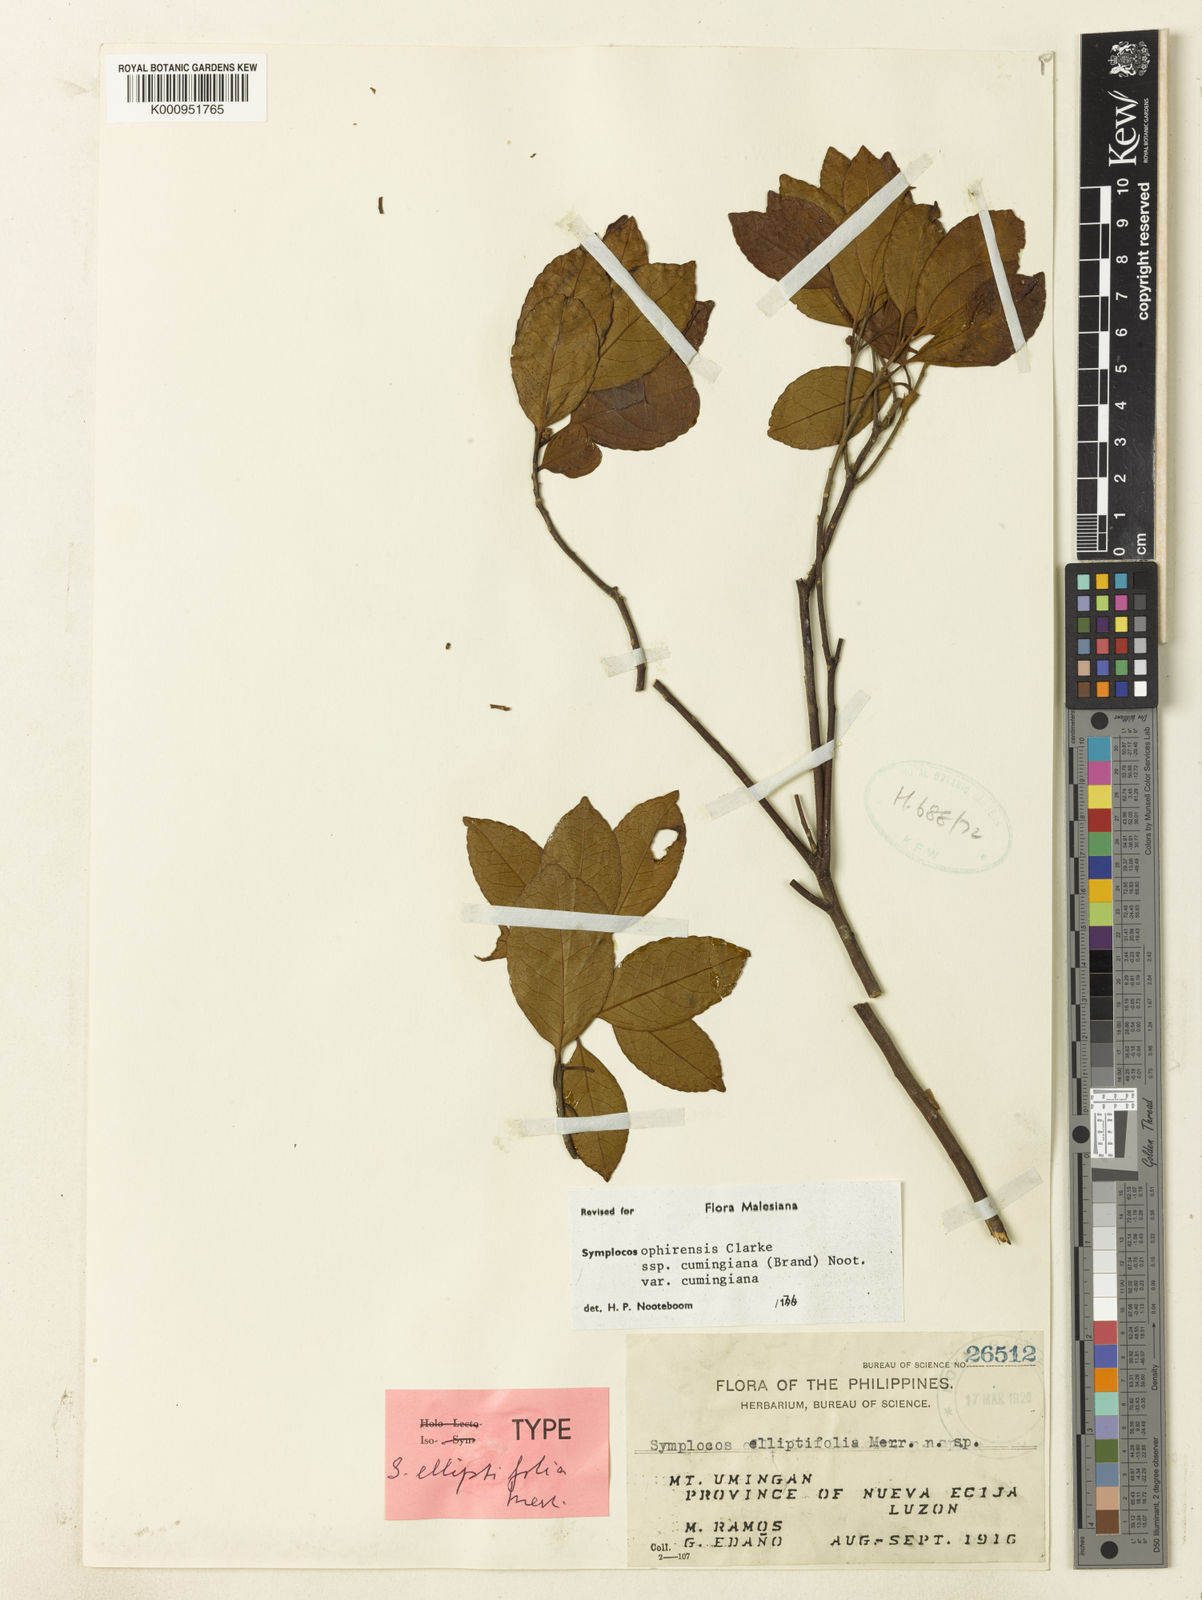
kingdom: Plantae
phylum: Tracheophyta
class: Magnoliopsida
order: Ericales
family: Symplocaceae
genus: Symplocos
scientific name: Symplocos ophirensis
